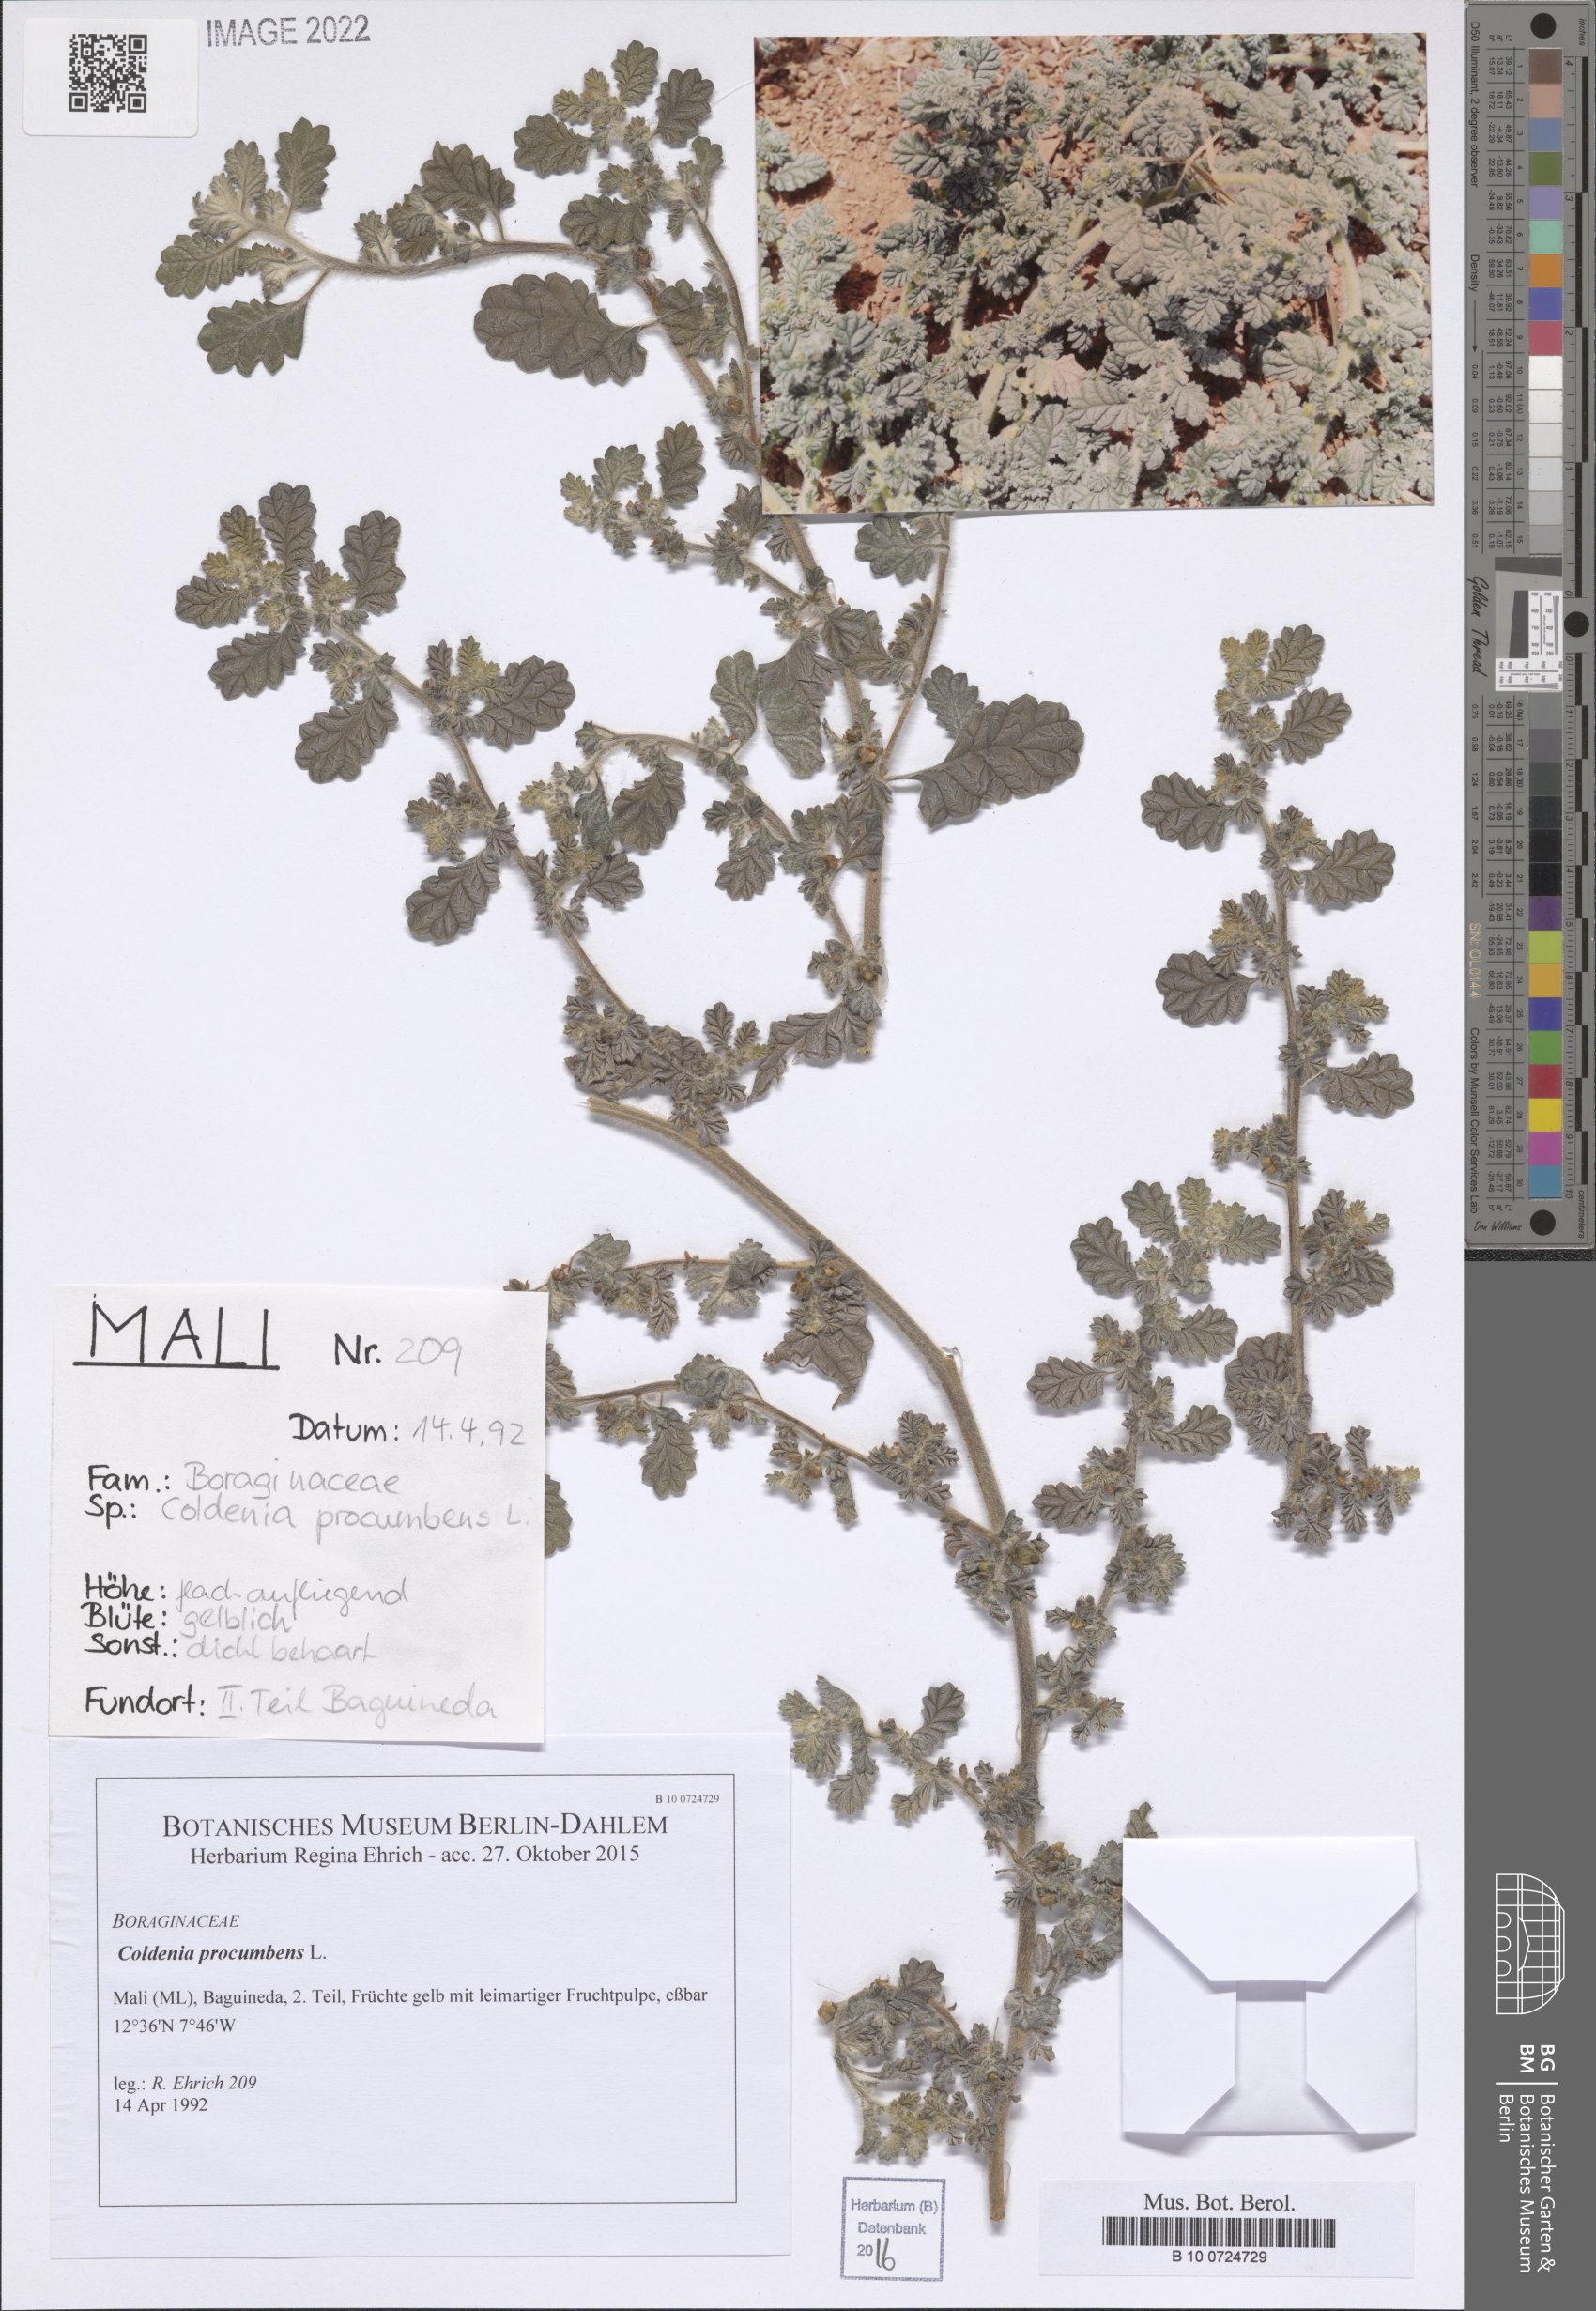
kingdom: Plantae
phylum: Tracheophyta
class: Magnoliopsida
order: Boraginales
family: Coldeniaceae
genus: Coldenia
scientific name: Coldenia procumbens
